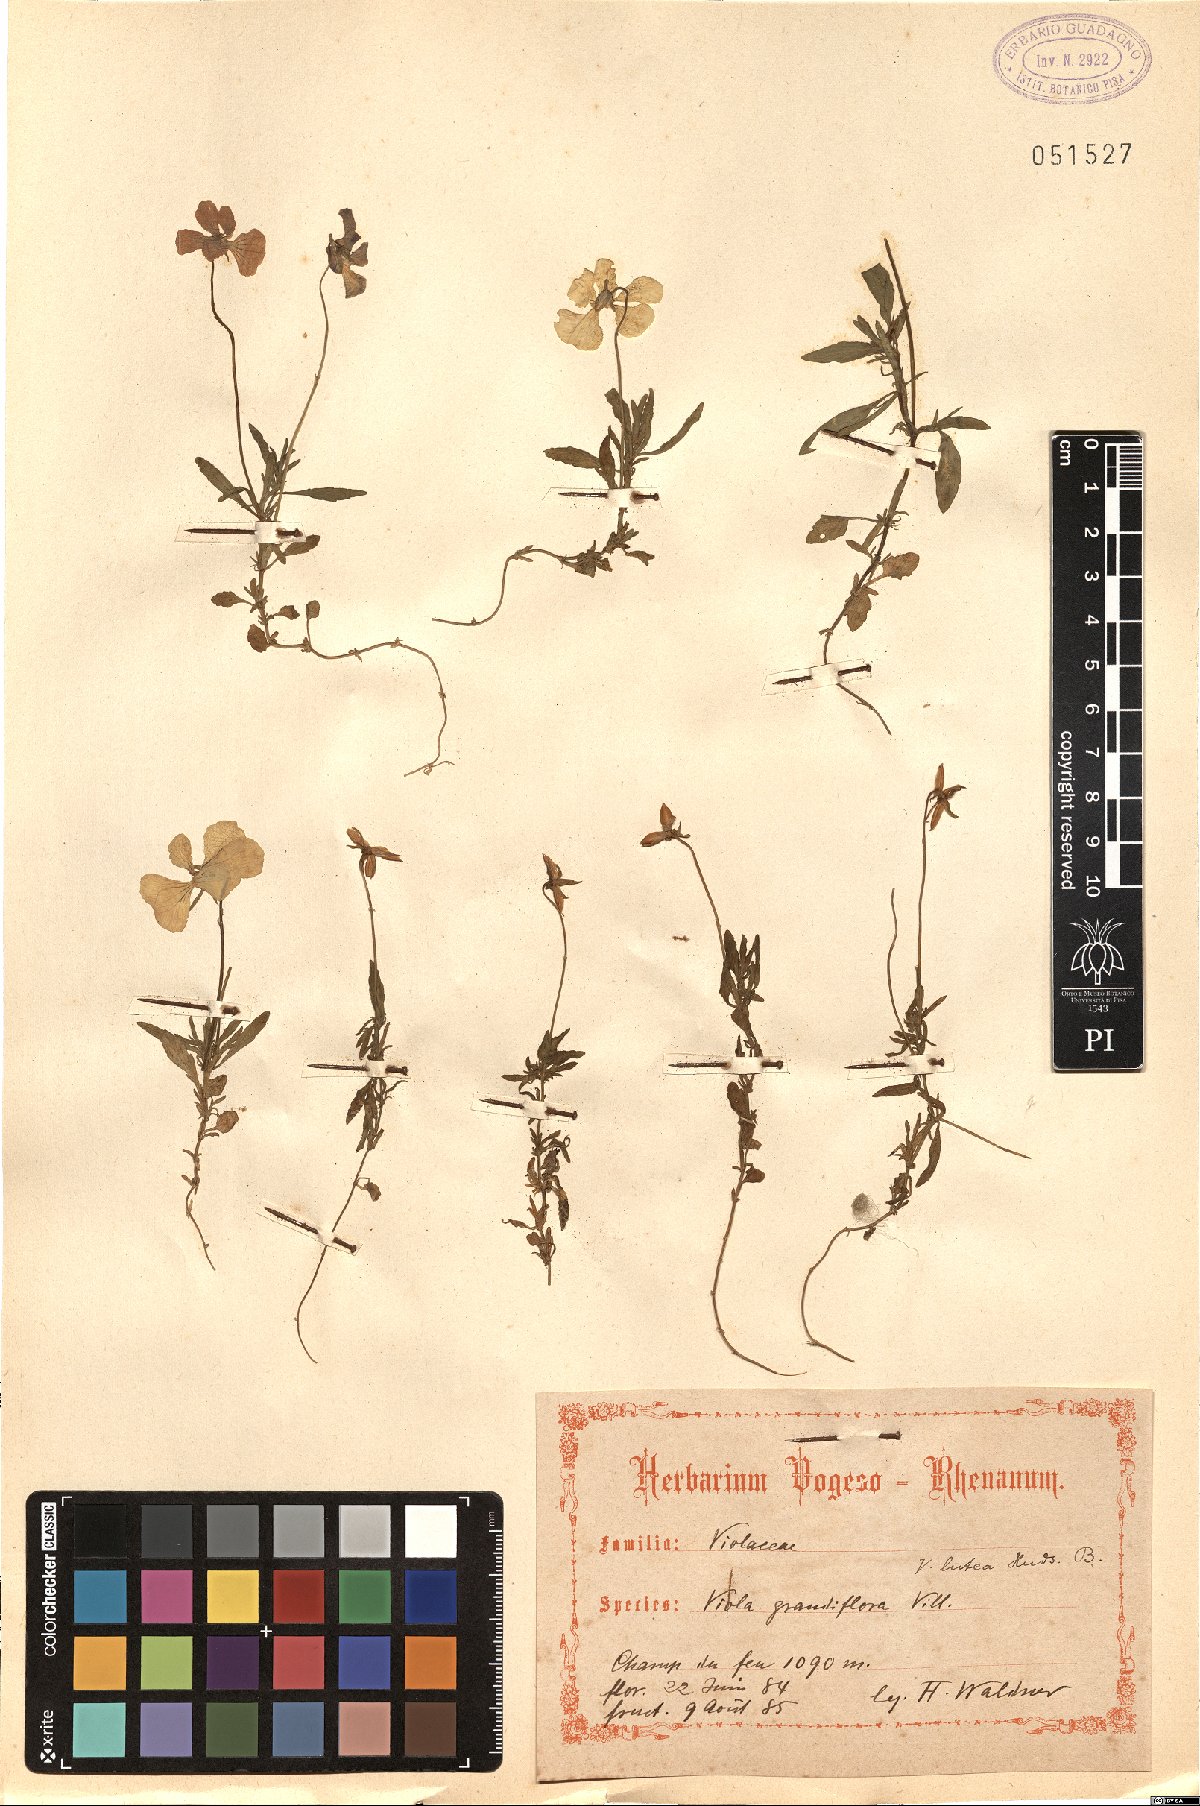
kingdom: Plantae
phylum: Tracheophyta
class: Magnoliopsida
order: Malpighiales
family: Violaceae
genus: Viola
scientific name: Viola lutea
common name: Mountain pansy
